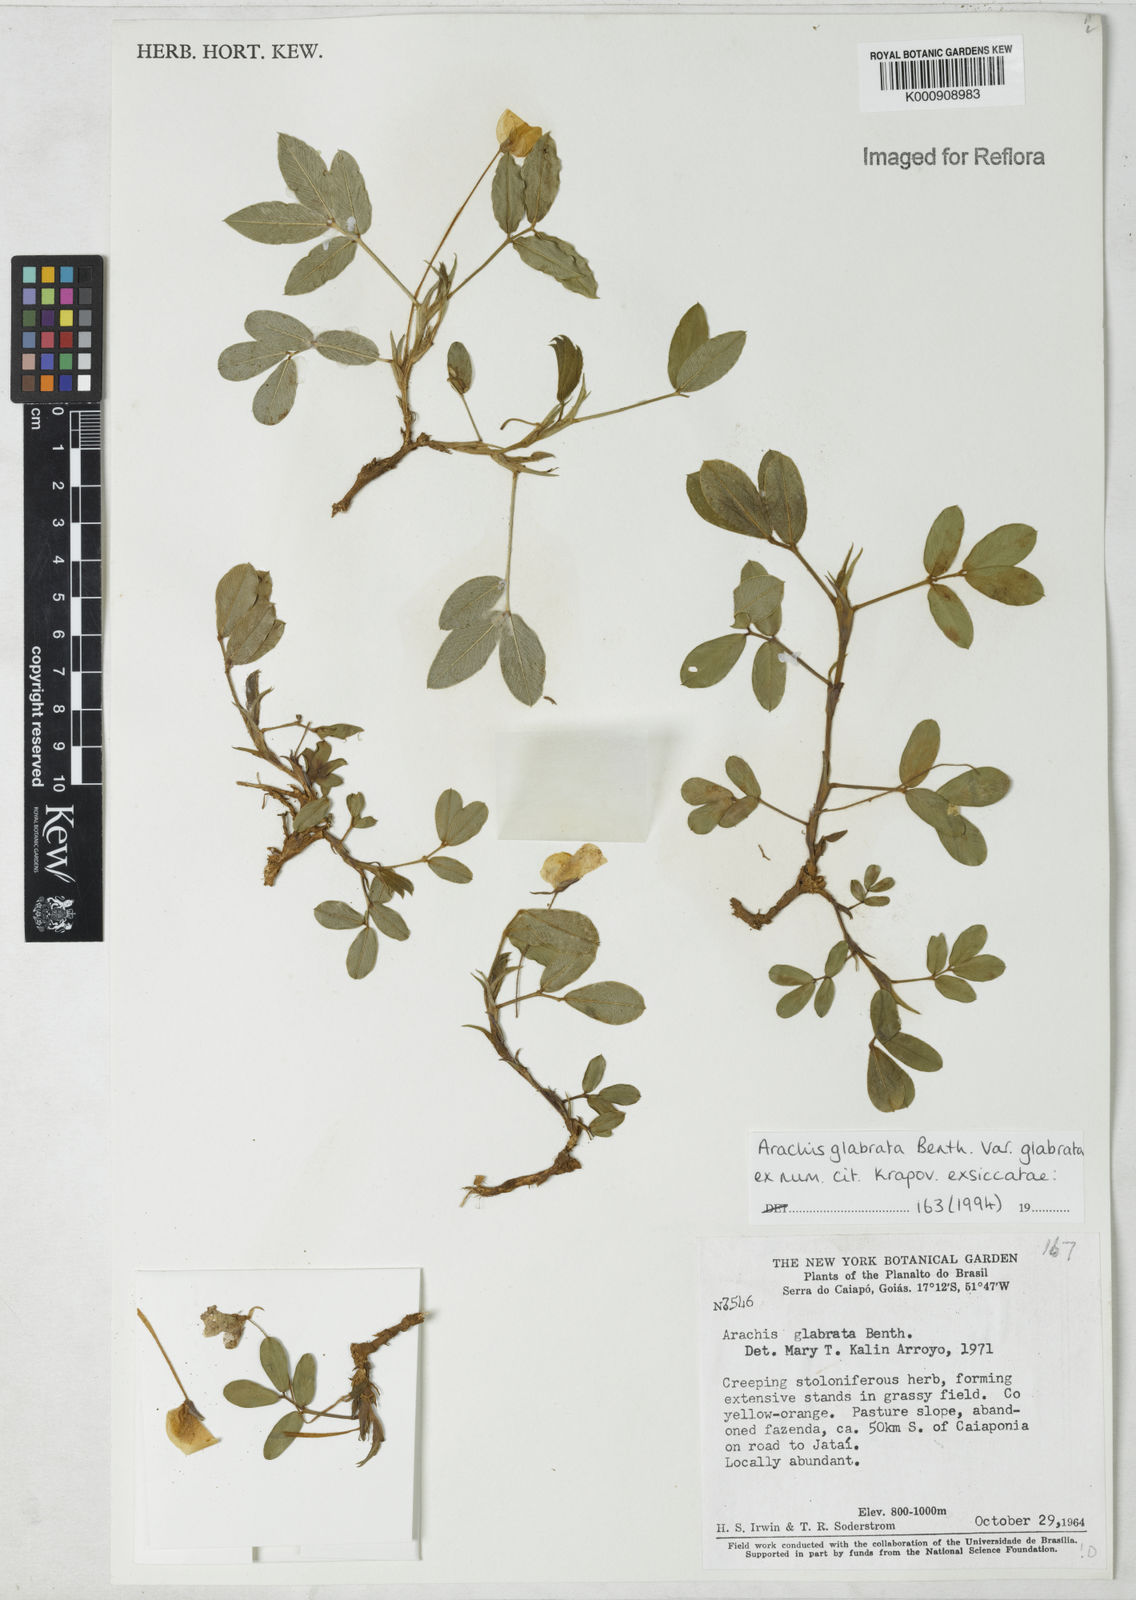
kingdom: Plantae
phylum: Tracheophyta
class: Magnoliopsida
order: Fabales
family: Fabaceae
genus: Arachis
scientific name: Arachis glabrata
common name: Rhizoma peanut
